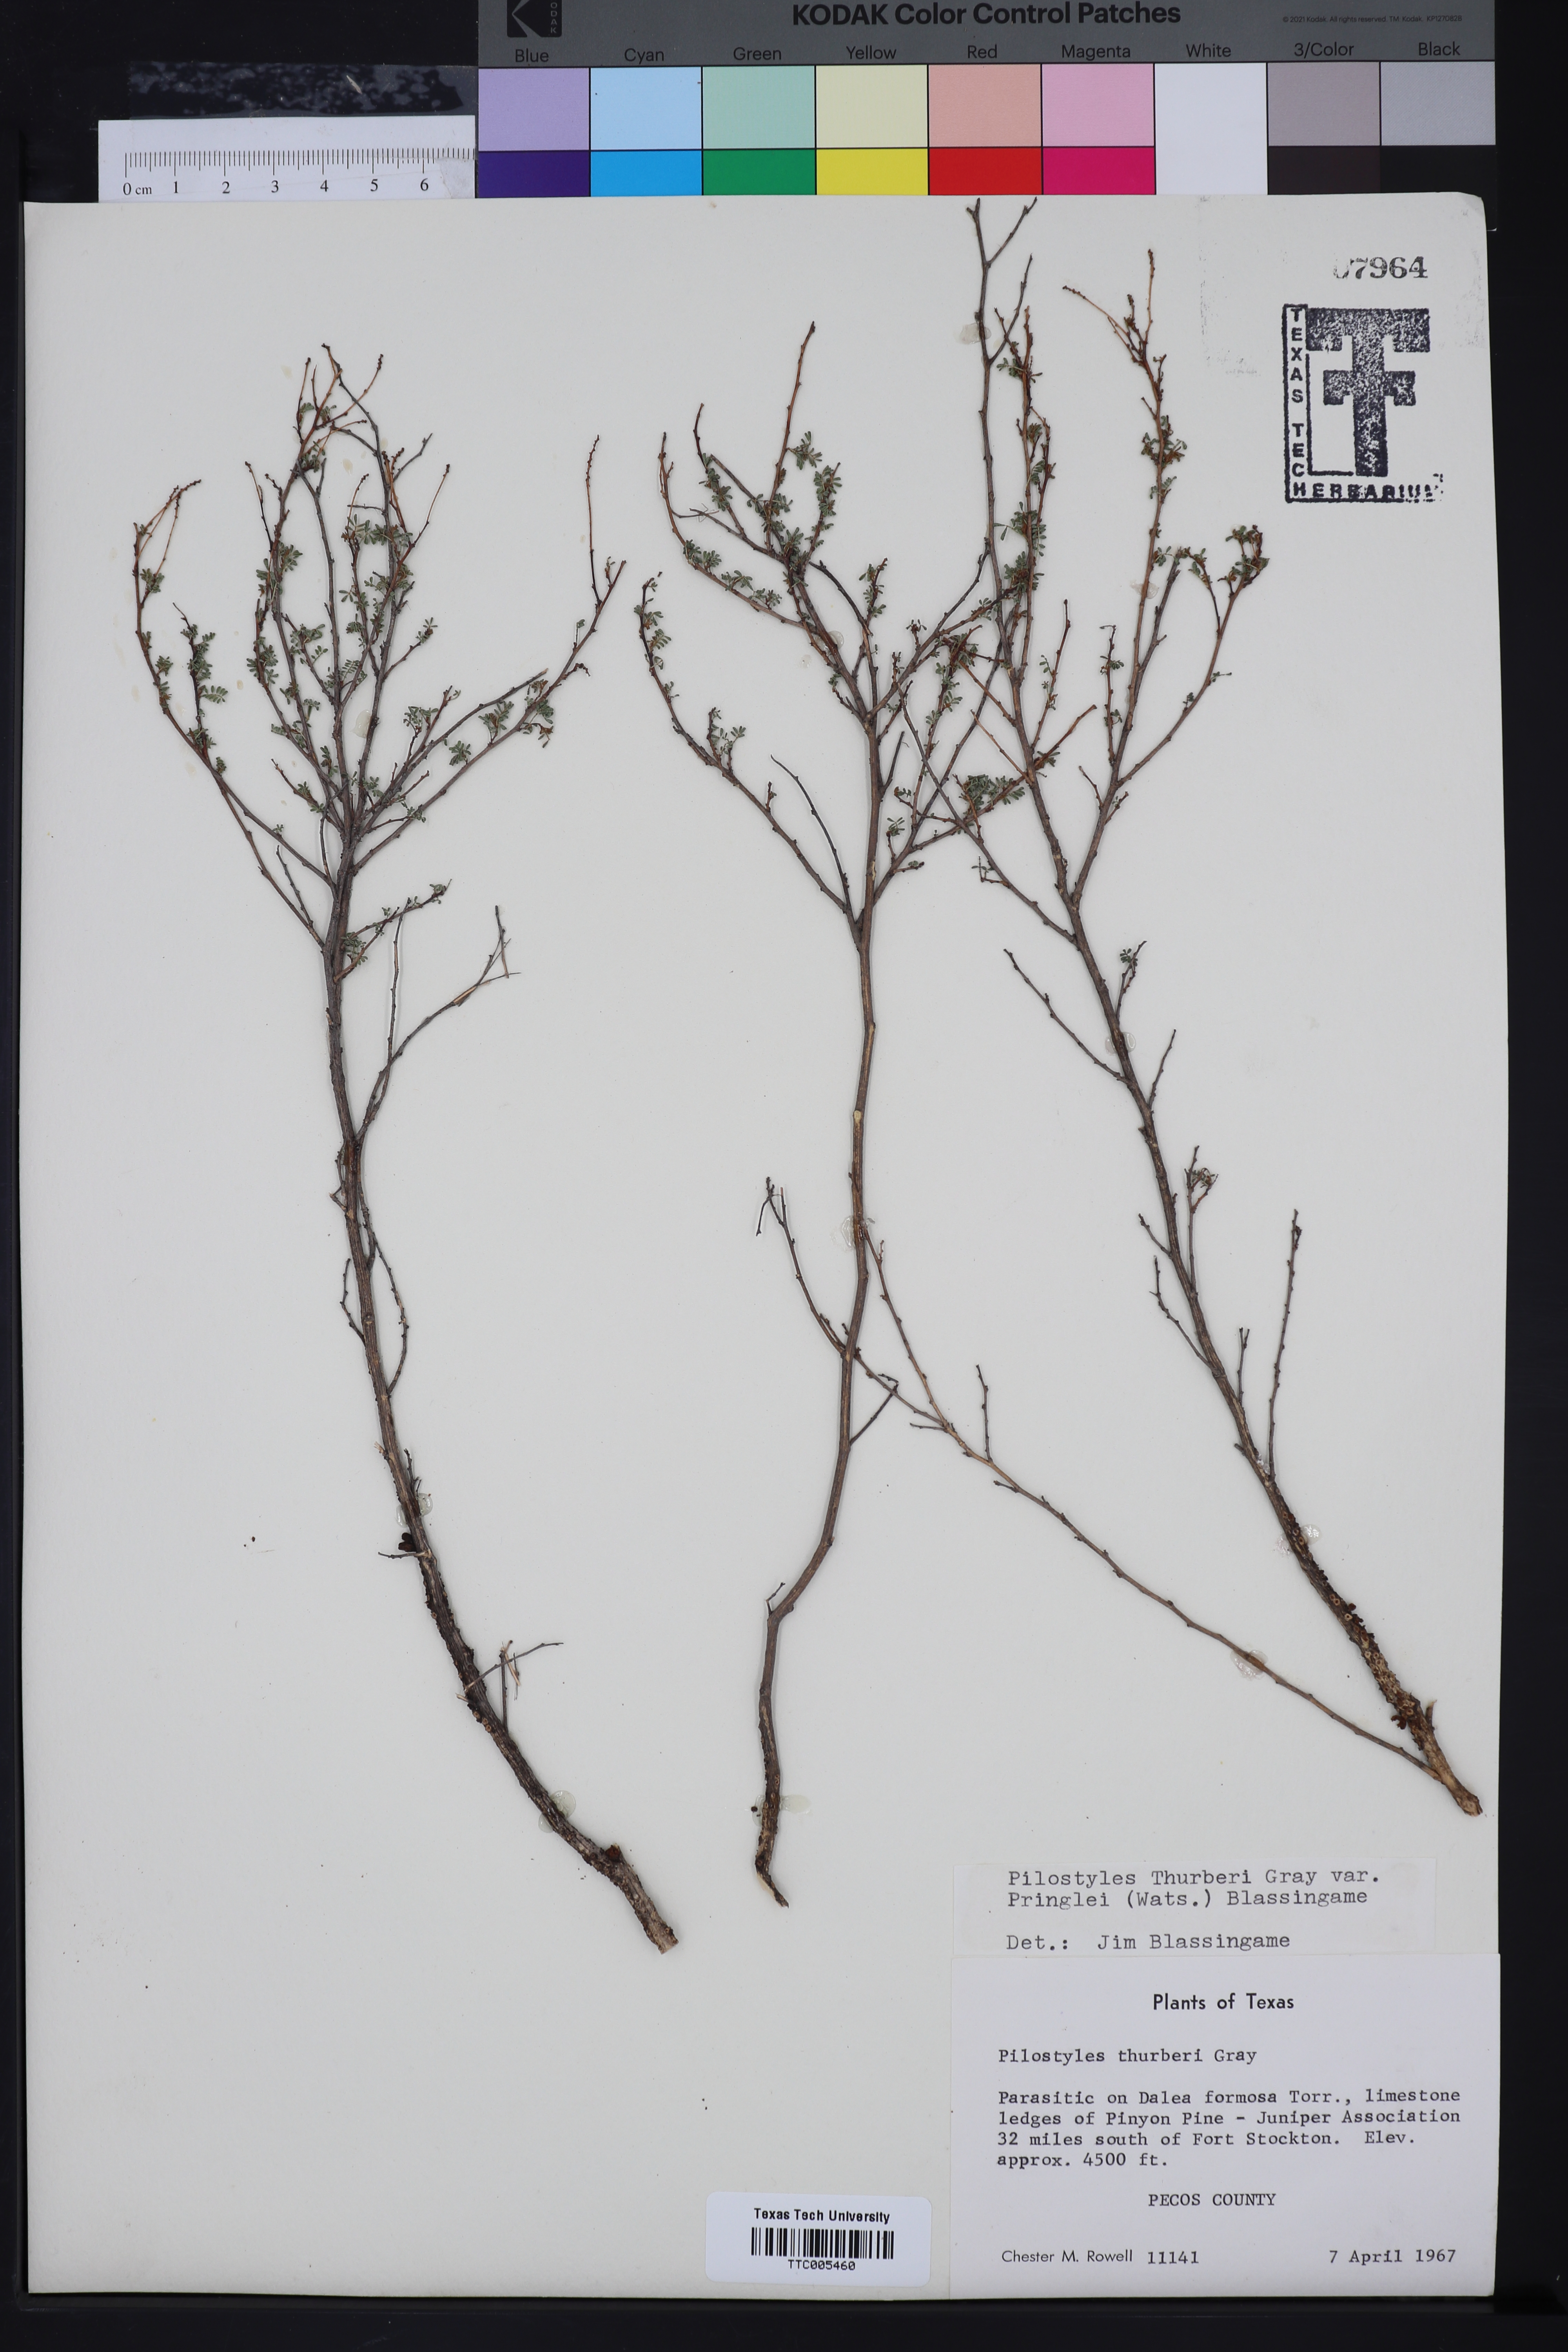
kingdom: Plantae
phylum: Tracheophyta
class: Magnoliopsida
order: Cucurbitales
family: Apodanthaceae
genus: Pilostyles
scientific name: Pilostyles thurberi
